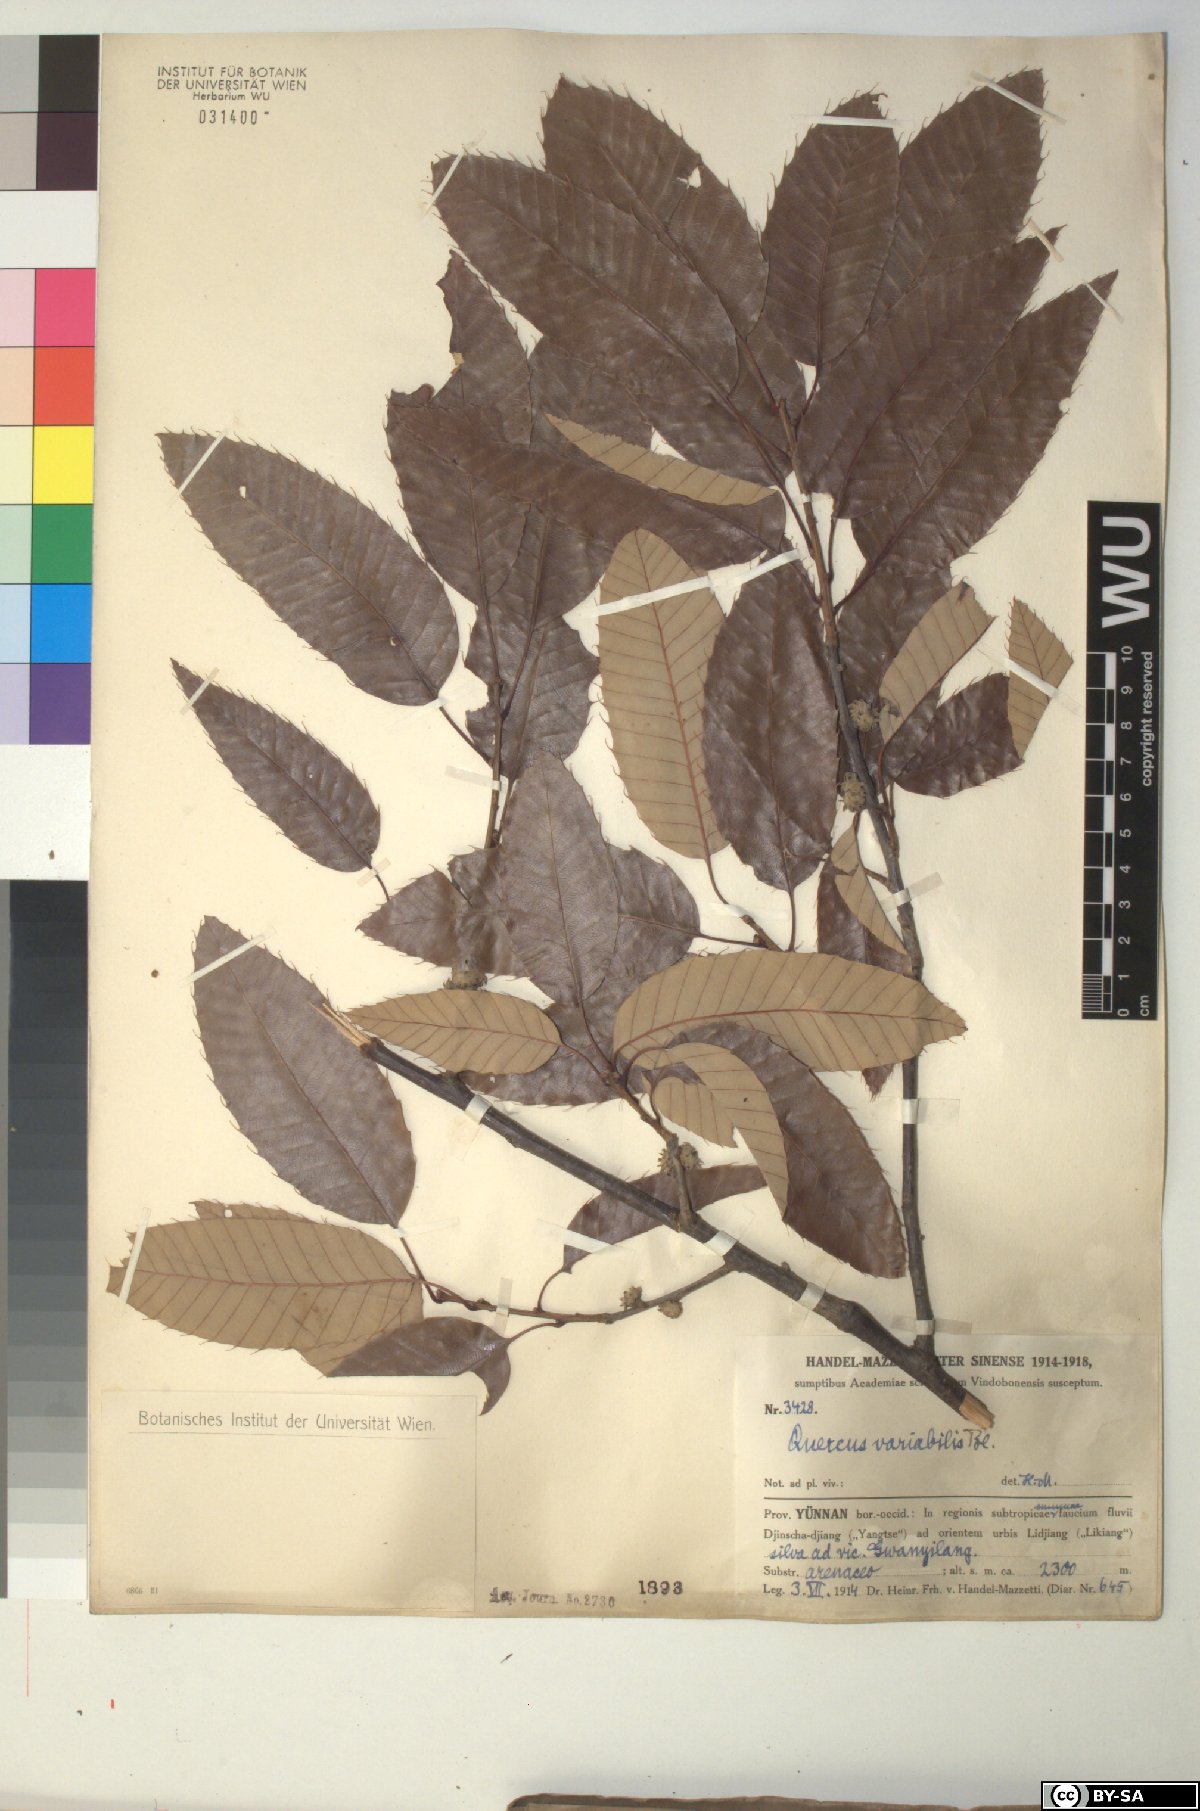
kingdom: Plantae
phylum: Tracheophyta
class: Magnoliopsida
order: Fagales
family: Fagaceae
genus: Quercus
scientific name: Quercus variabilis
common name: Chinese cork oak
